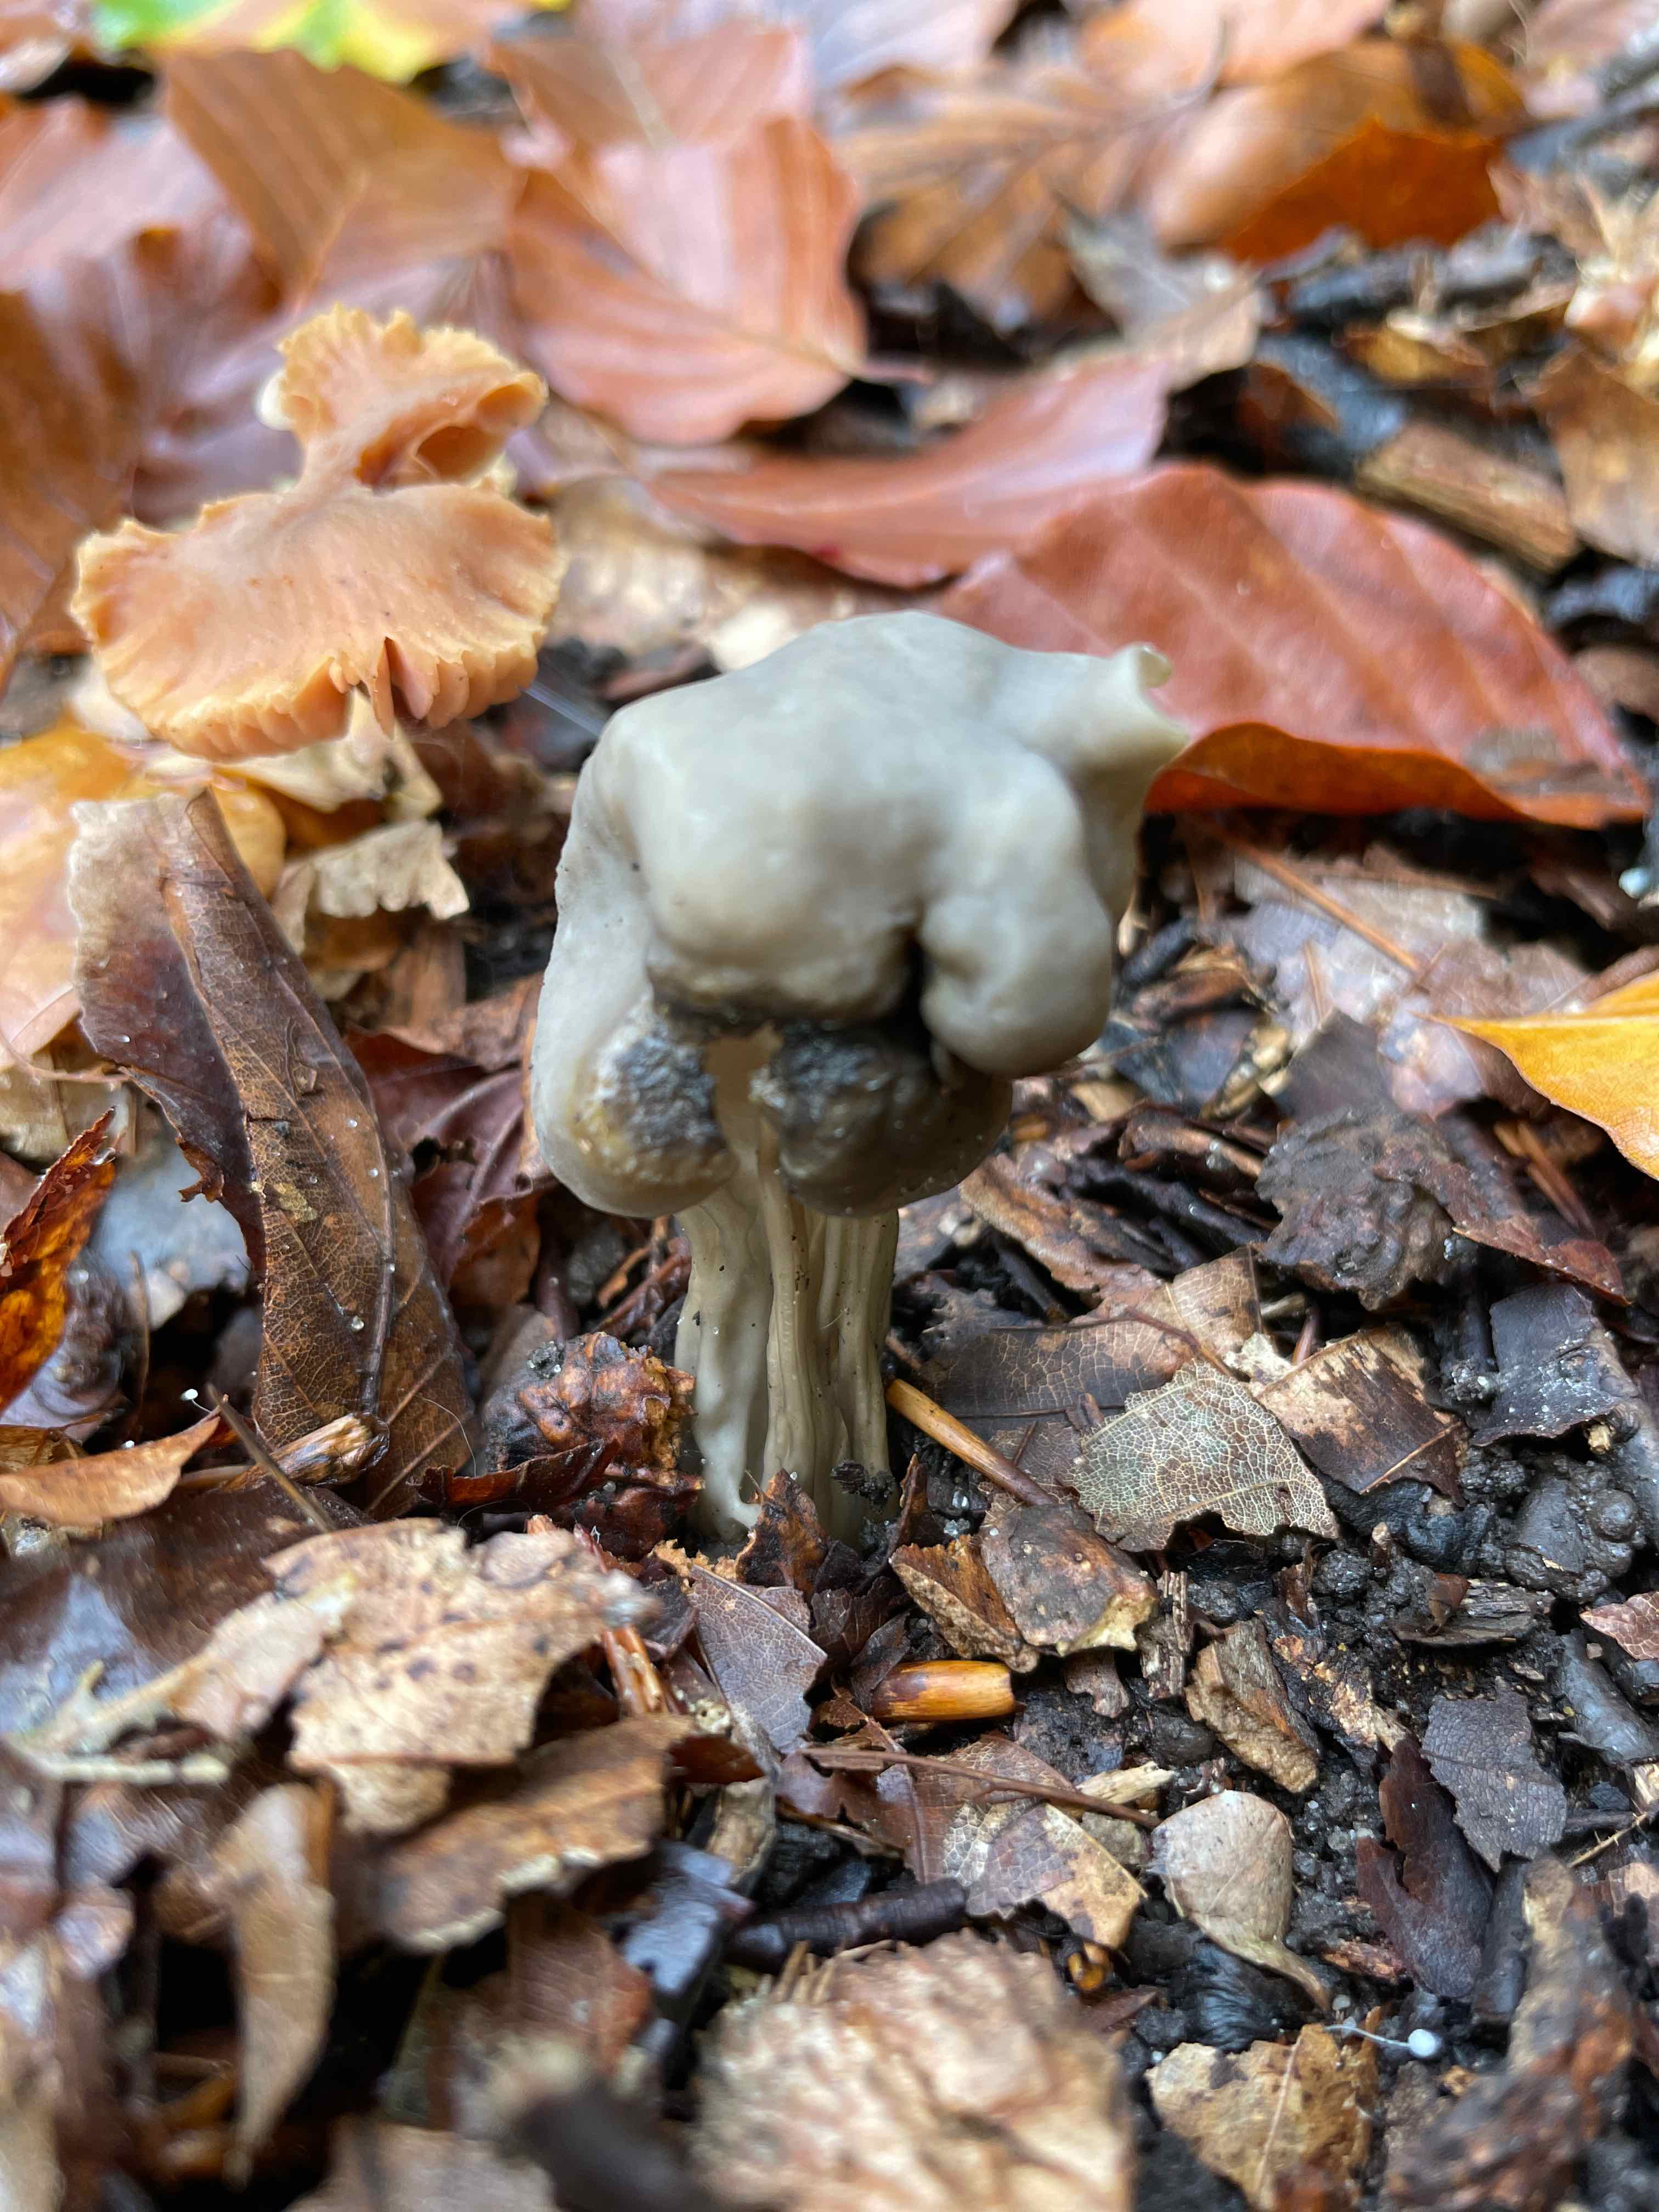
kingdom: Fungi
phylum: Ascomycota
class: Pezizomycetes
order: Pezizales
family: Helvellaceae
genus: Helvella
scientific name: Helvella lacunosa
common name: grubet foldhat
